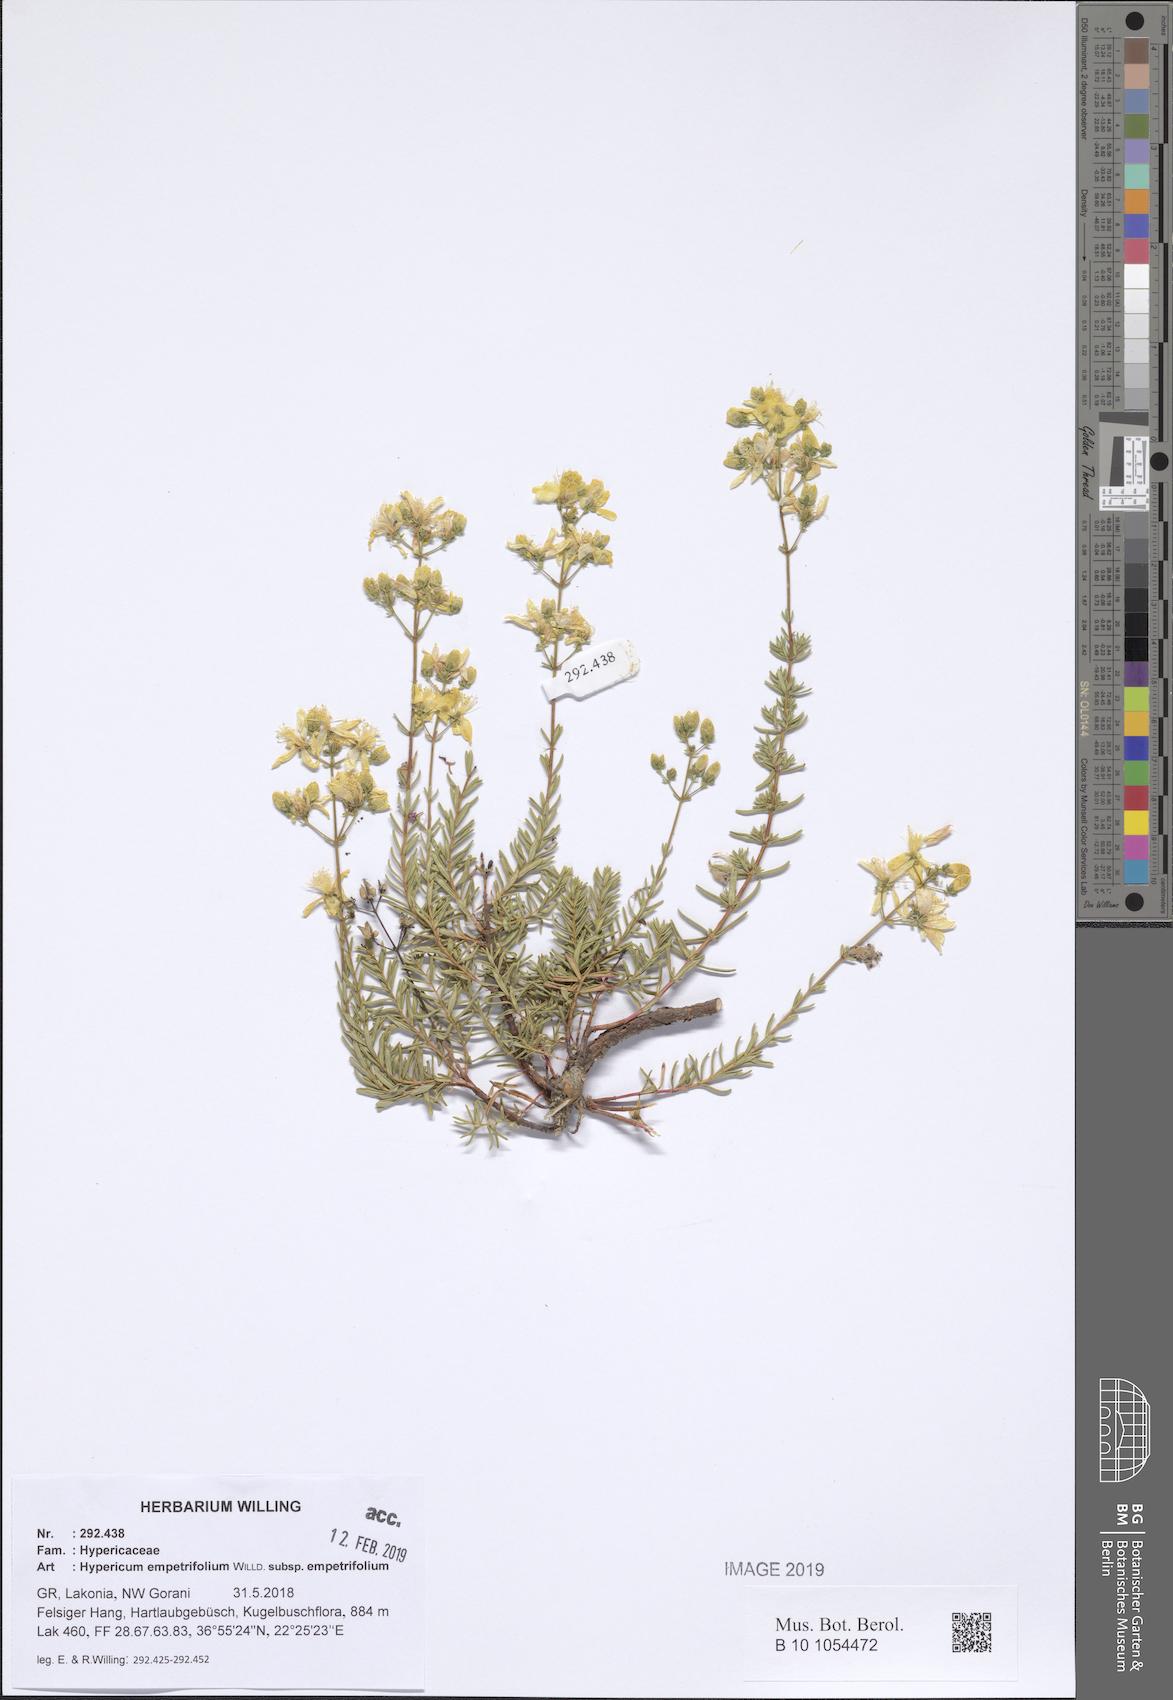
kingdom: Plantae
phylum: Tracheophyta
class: Magnoliopsida
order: Malpighiales
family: Hypericaceae
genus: Hypericum
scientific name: Hypericum empetrifolium
